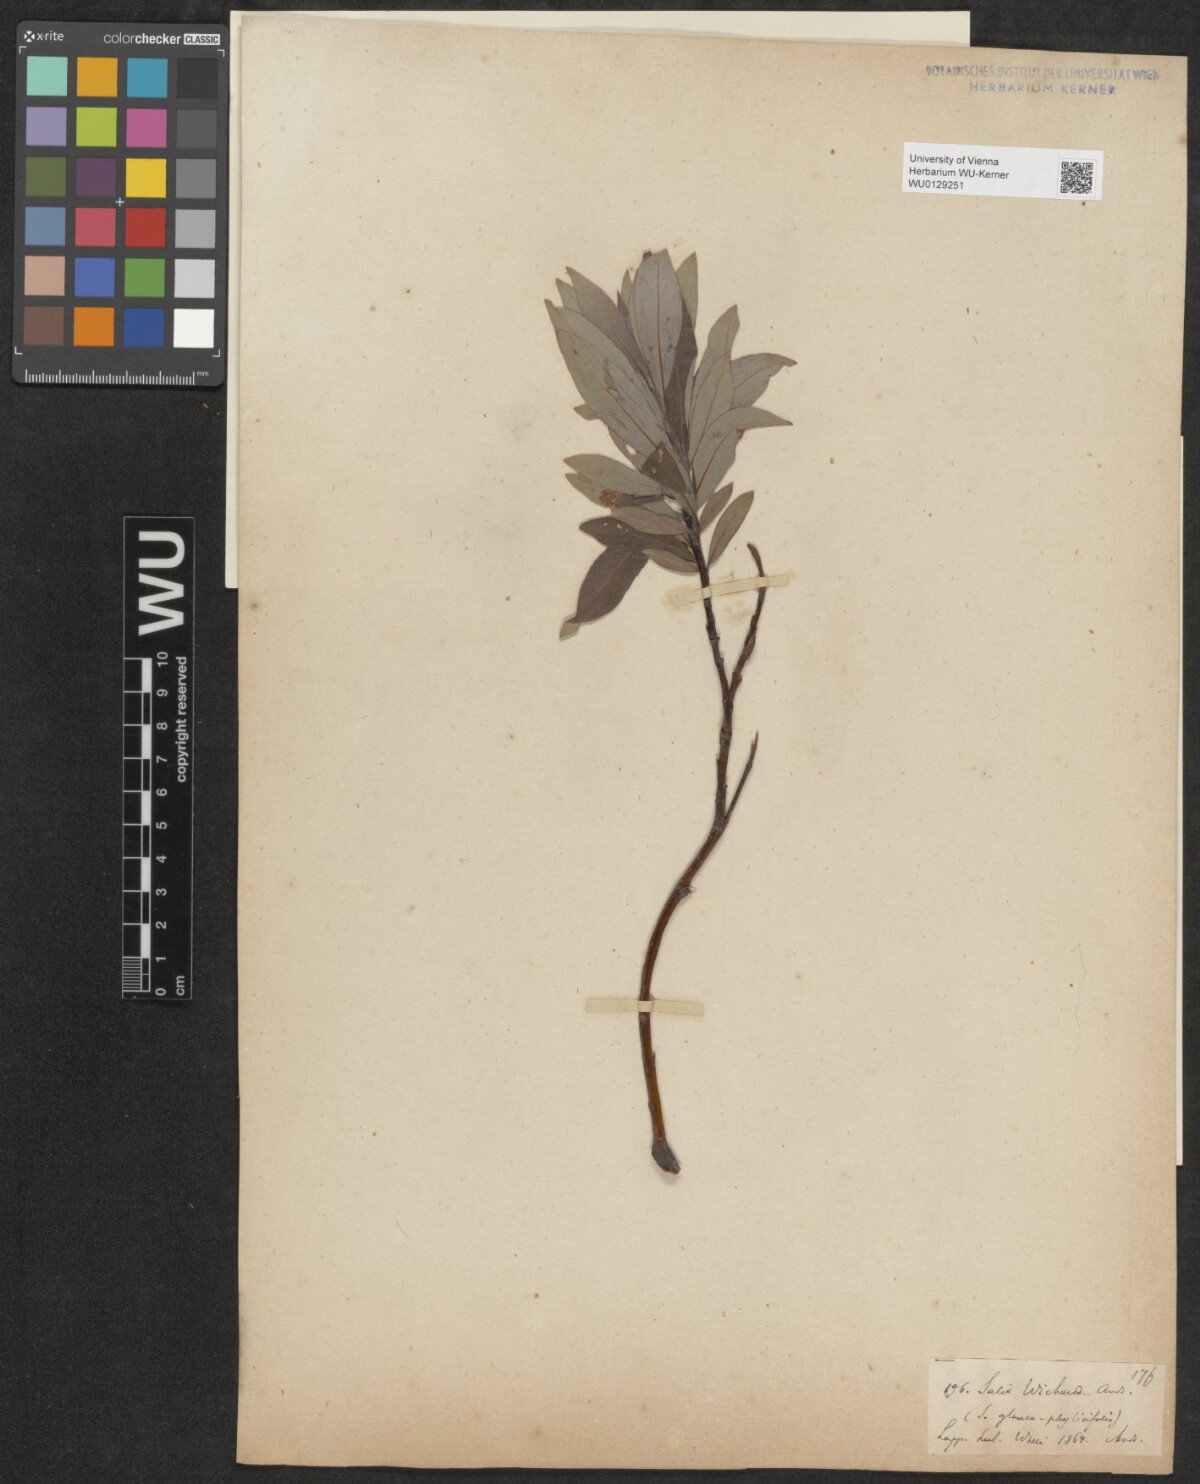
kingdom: Plantae
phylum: Tracheophyta
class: Magnoliopsida
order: Malpighiales
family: Salicaceae
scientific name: Salicaceae
